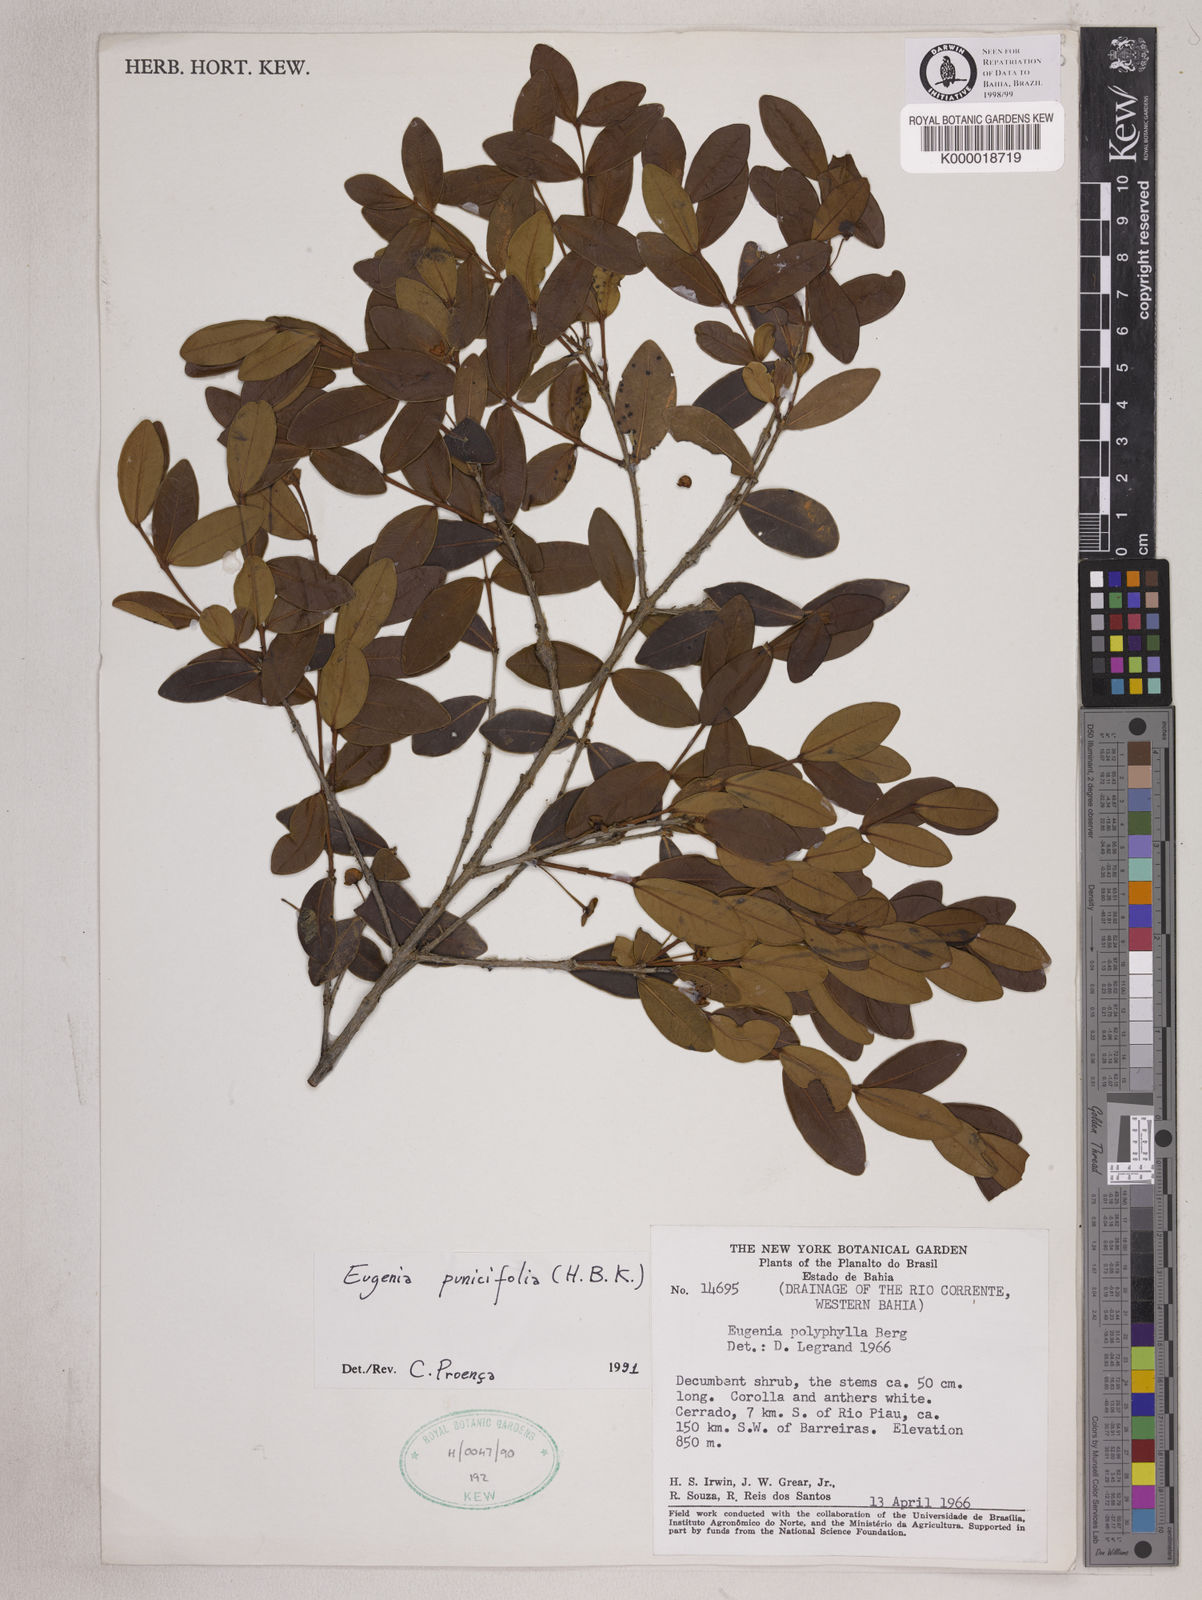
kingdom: Plantae
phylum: Tracheophyta
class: Magnoliopsida
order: Myrtales
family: Myrtaceae
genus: Eugenia
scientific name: Eugenia punicifolia
